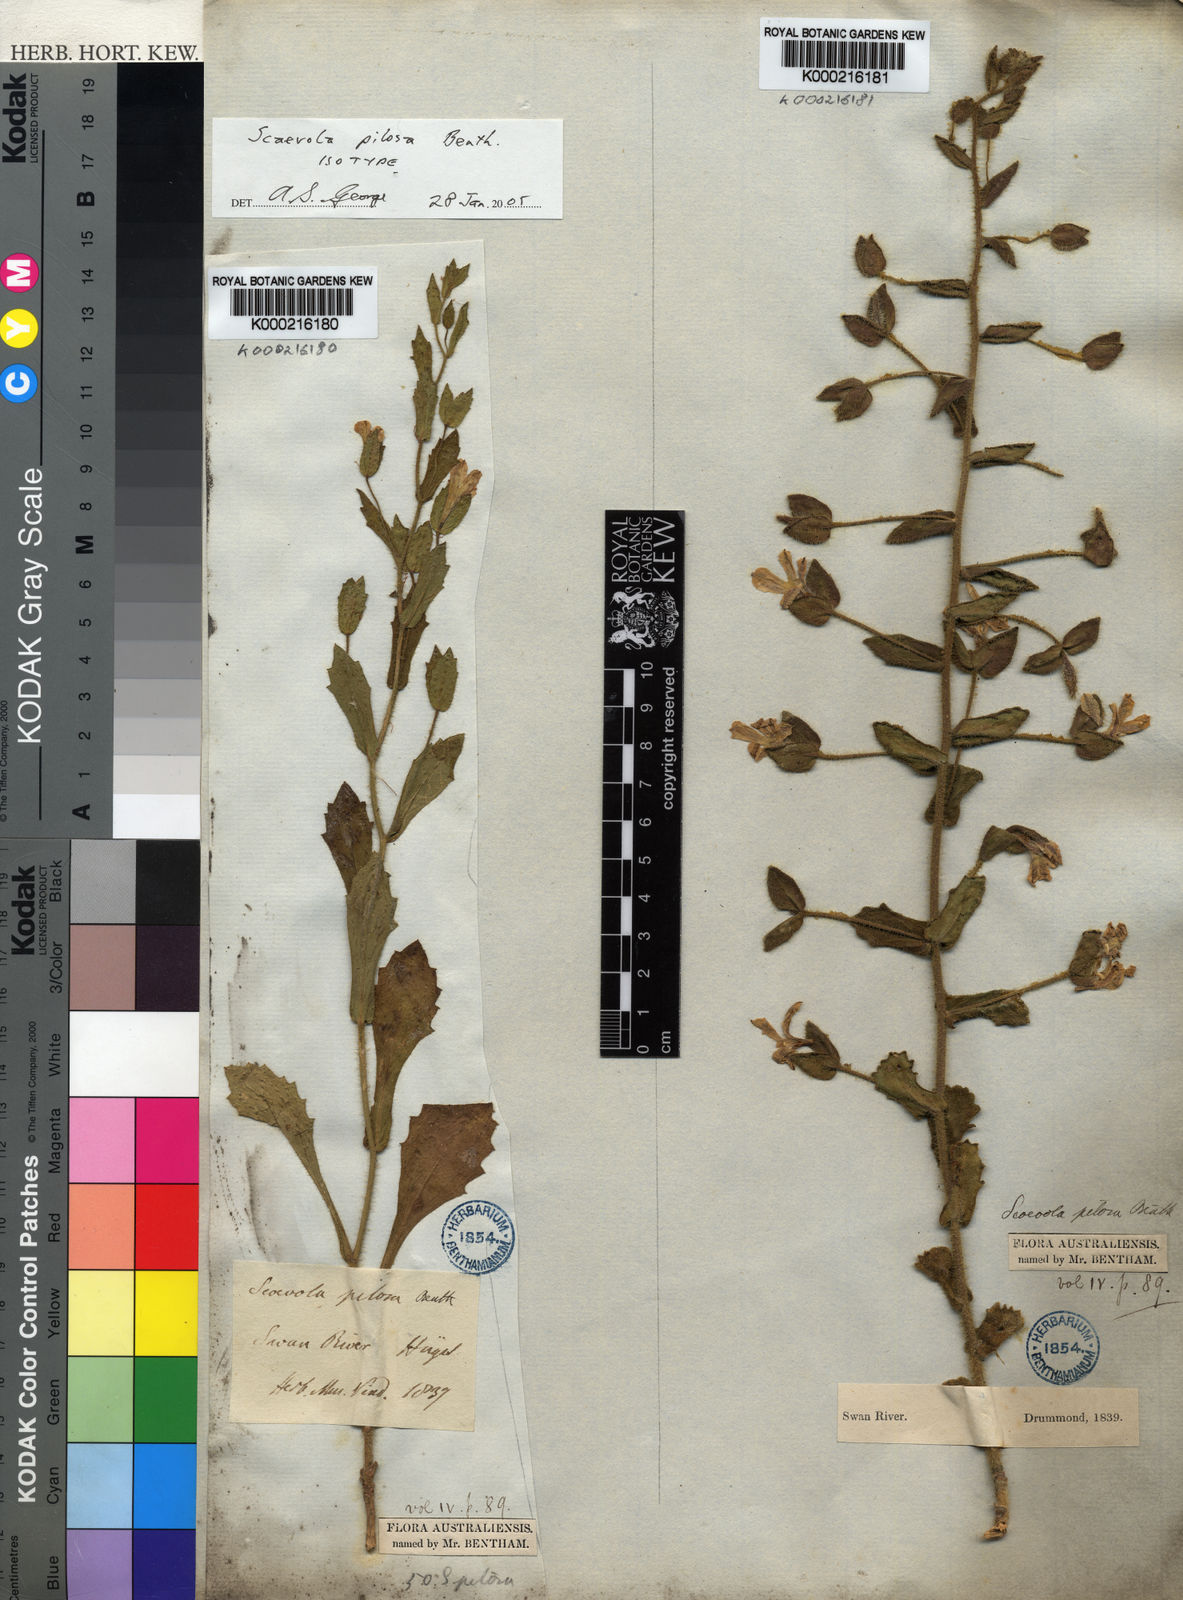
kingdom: Plantae
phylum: Tracheophyta
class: Magnoliopsida
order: Asterales
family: Goodeniaceae
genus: Scaevola
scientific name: Scaevola pilosa
